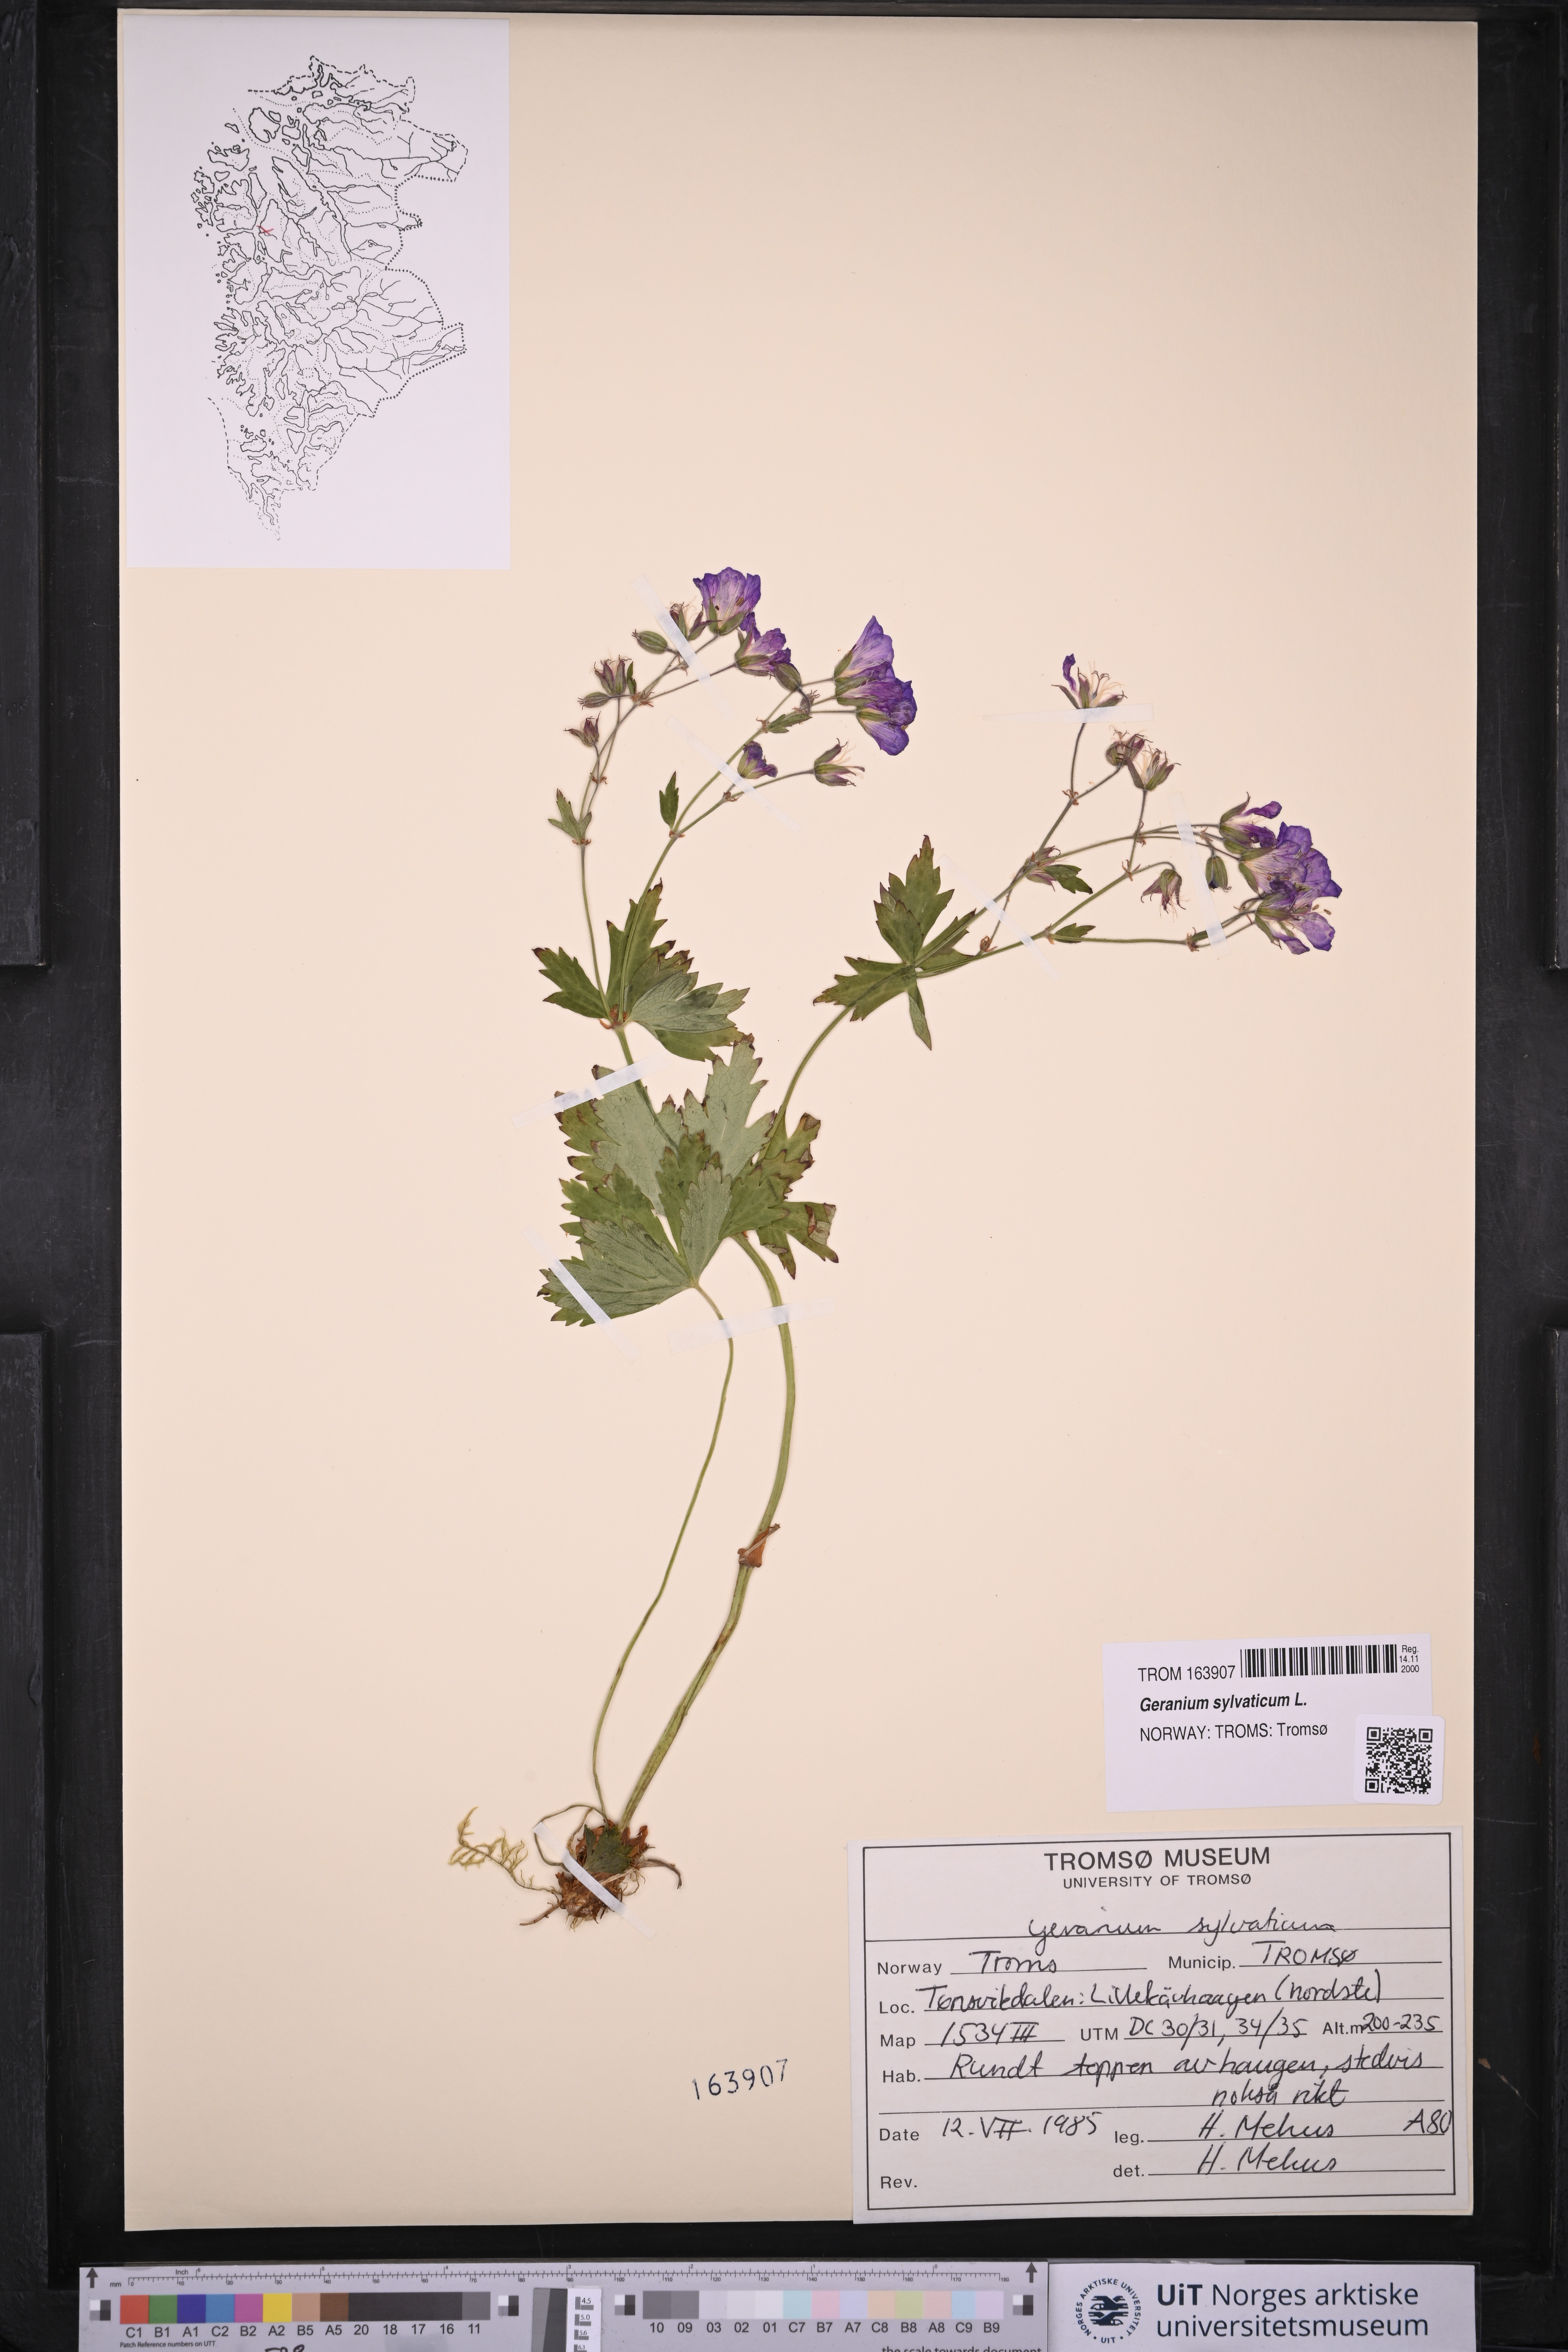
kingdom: Plantae
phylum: Tracheophyta
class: Magnoliopsida
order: Geraniales
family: Geraniaceae
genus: Geranium
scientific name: Geranium sylvaticum
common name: Wood crane's-bill
